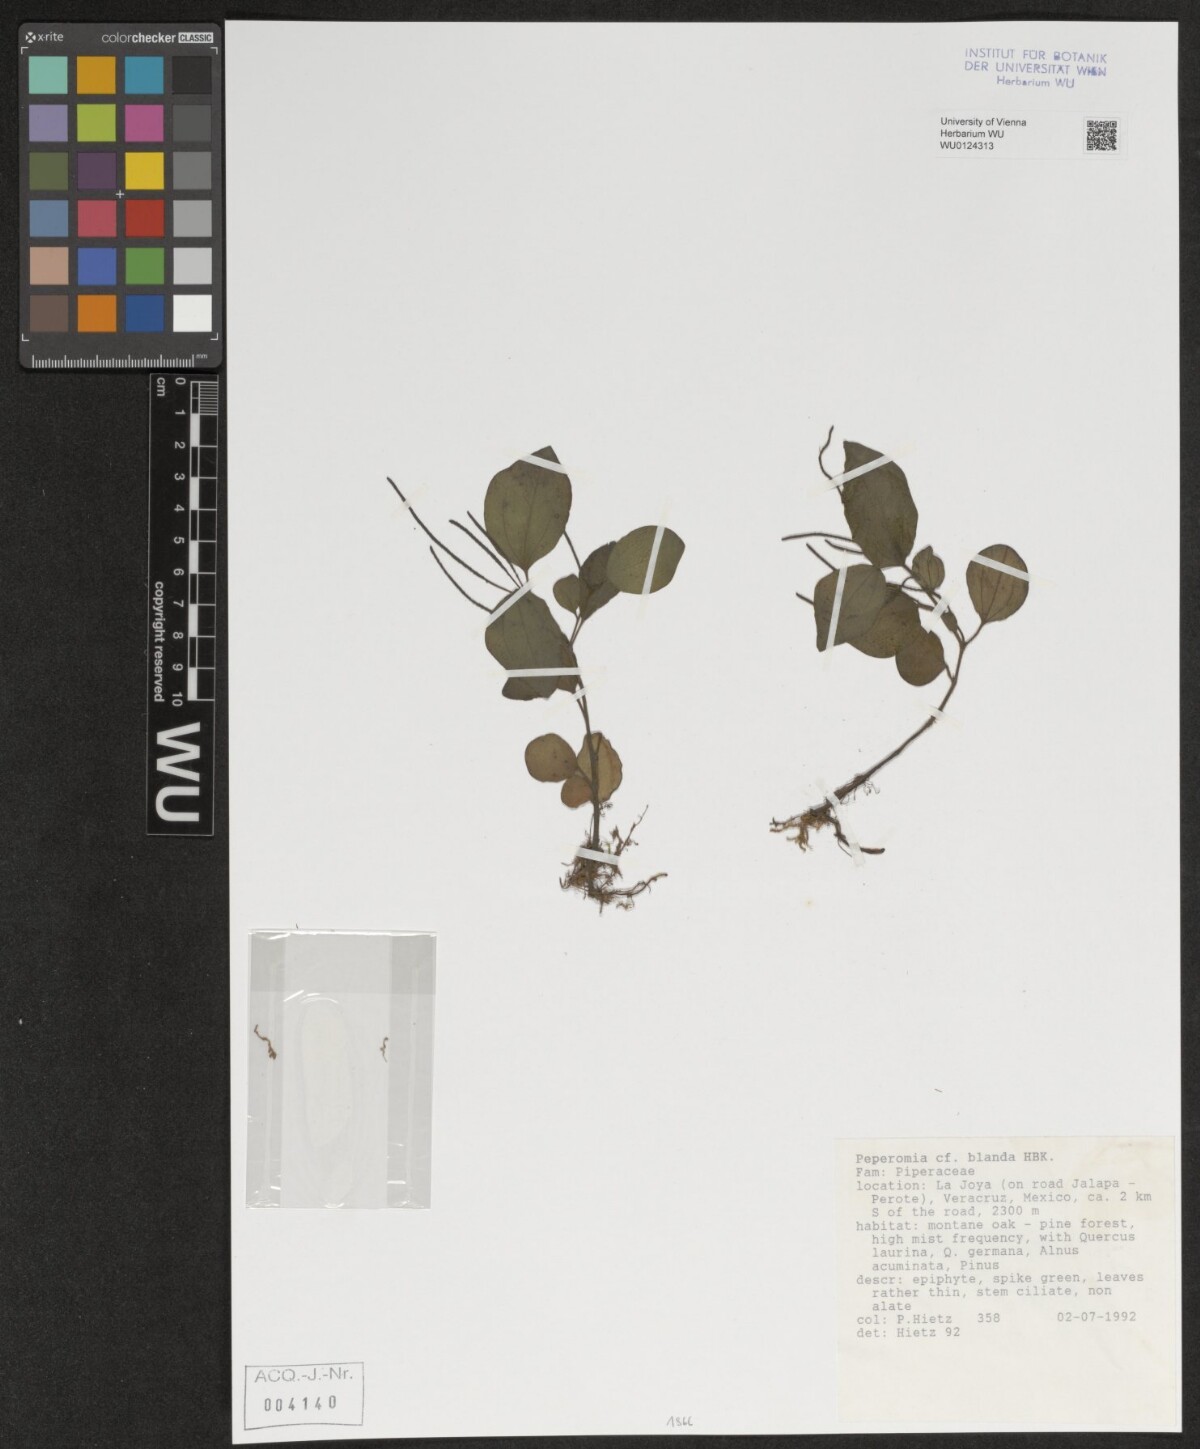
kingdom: Plantae
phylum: Tracheophyta
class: Magnoliopsida
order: Piperales
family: Piperaceae
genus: Peperomia
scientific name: Peperomia blanda
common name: Arid-land peperomia
